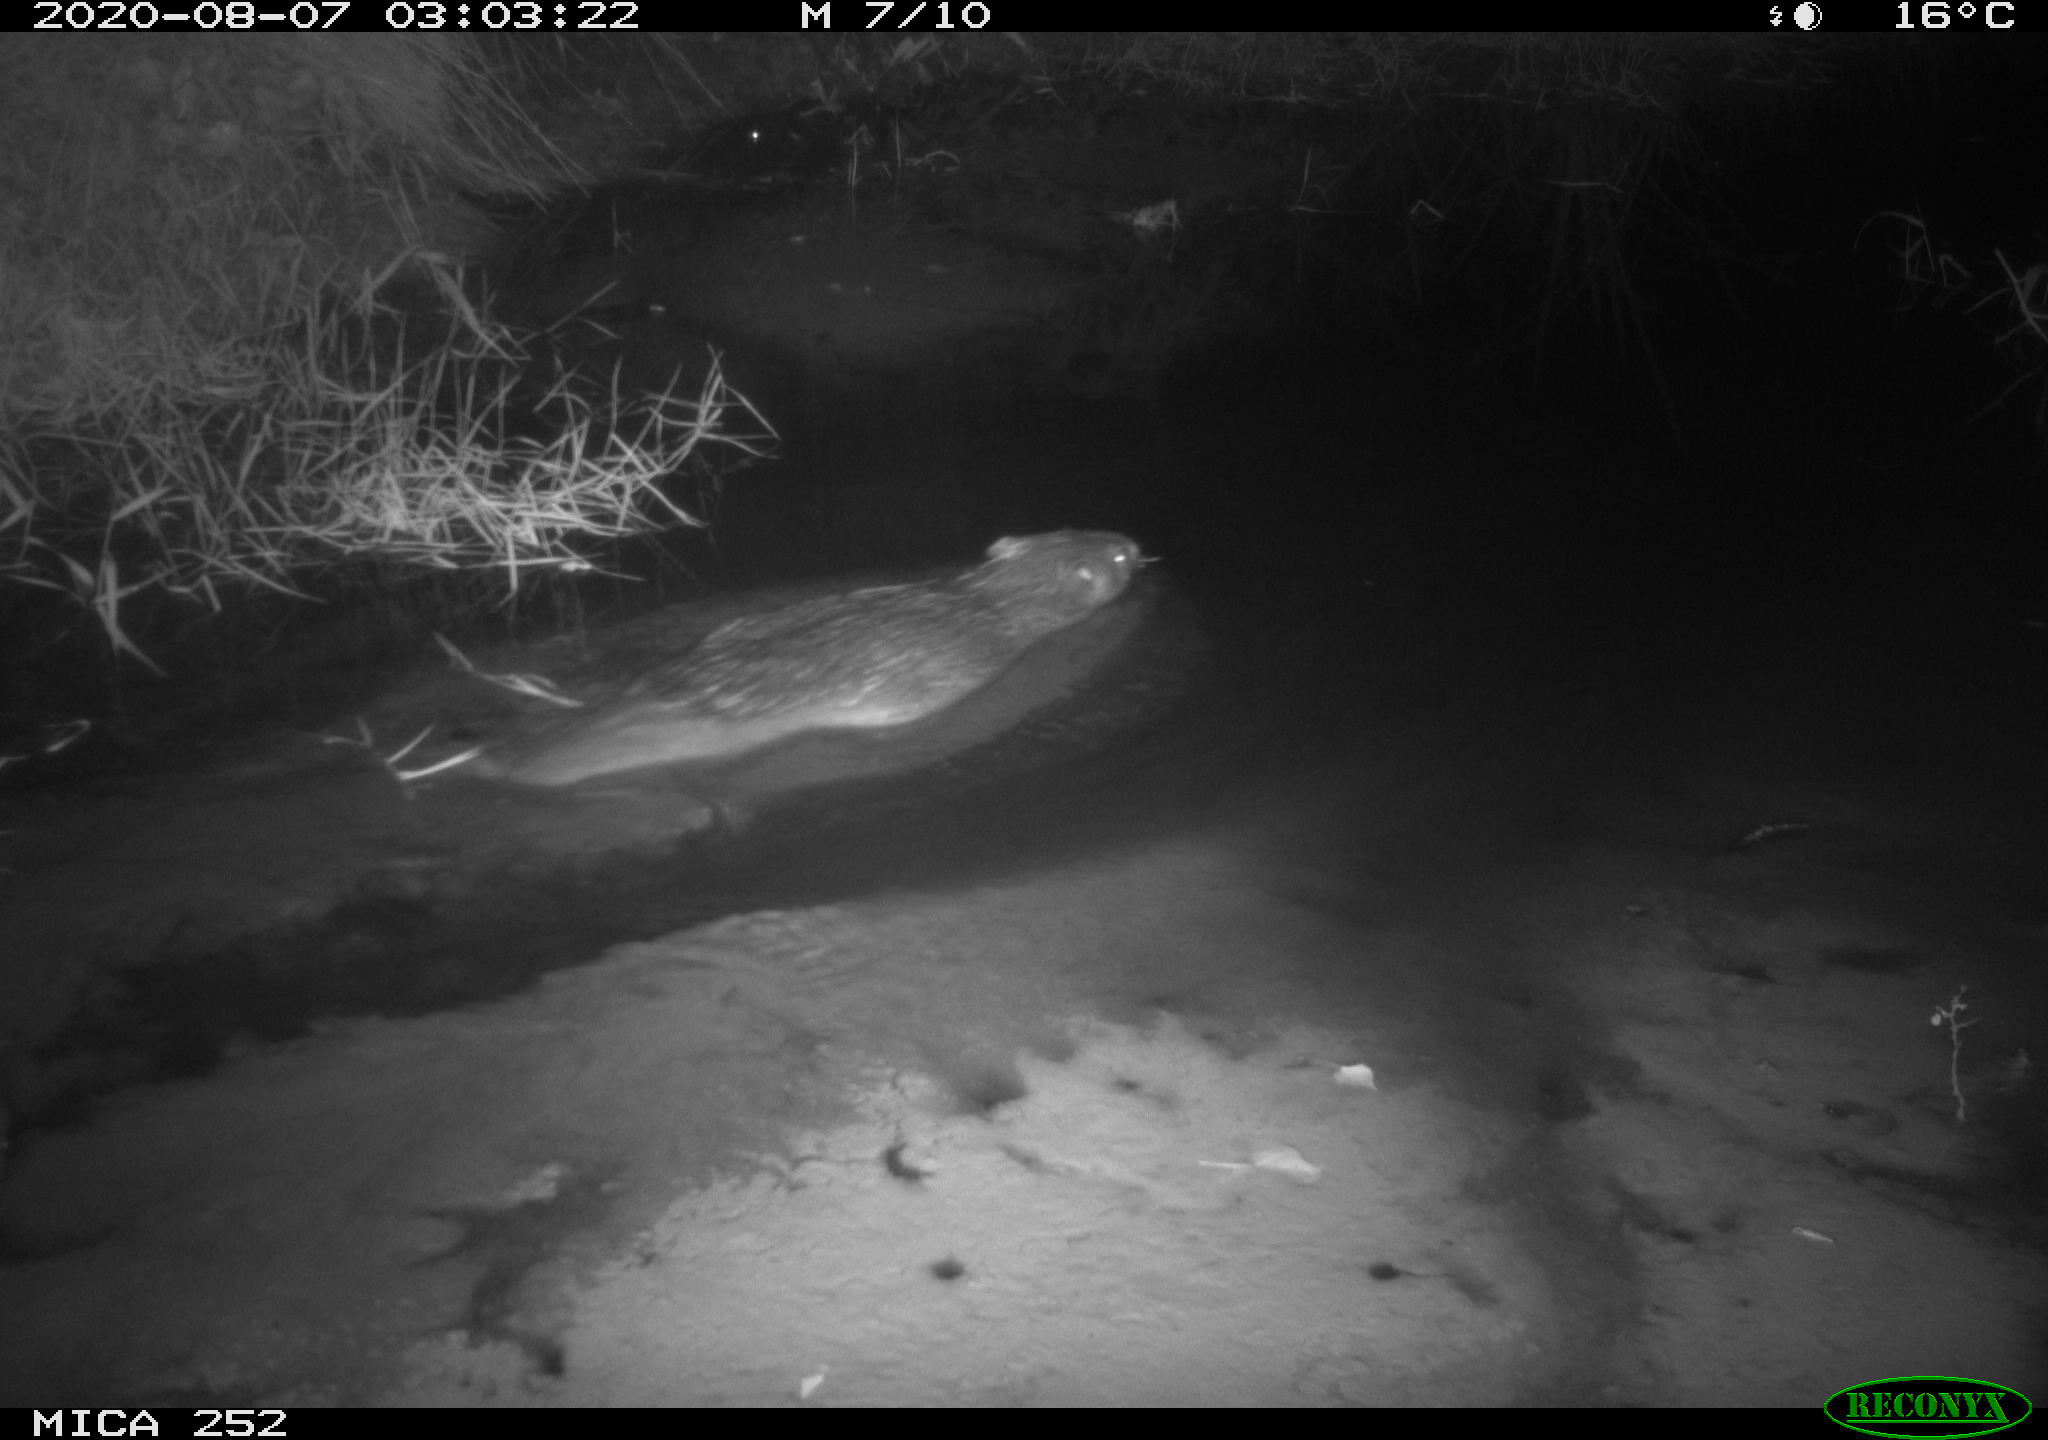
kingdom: Animalia
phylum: Chordata
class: Mammalia
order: Rodentia
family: Castoridae
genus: Castor
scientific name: Castor fiber
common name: Eurasian beaver
